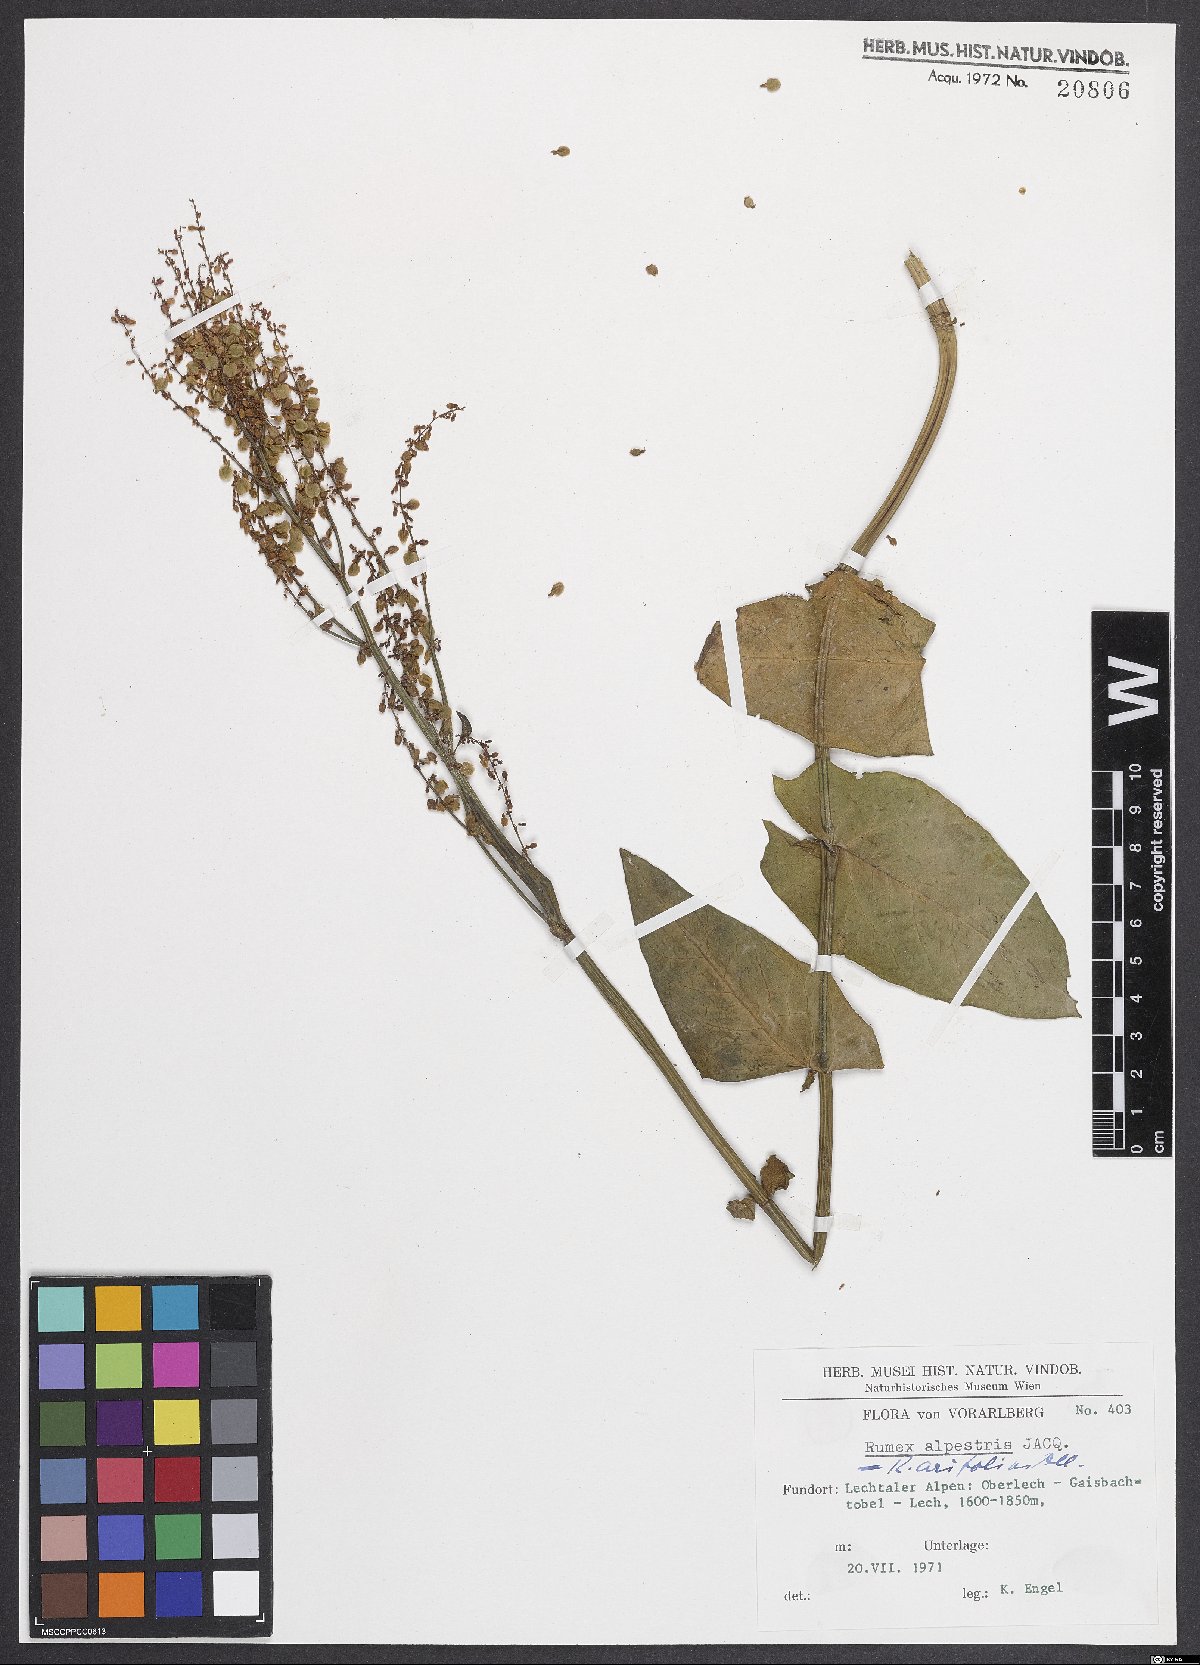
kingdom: Plantae
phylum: Tracheophyta
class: Magnoliopsida
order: Caryophyllales
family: Polygonaceae
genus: Rumex
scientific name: Rumex arifolius
